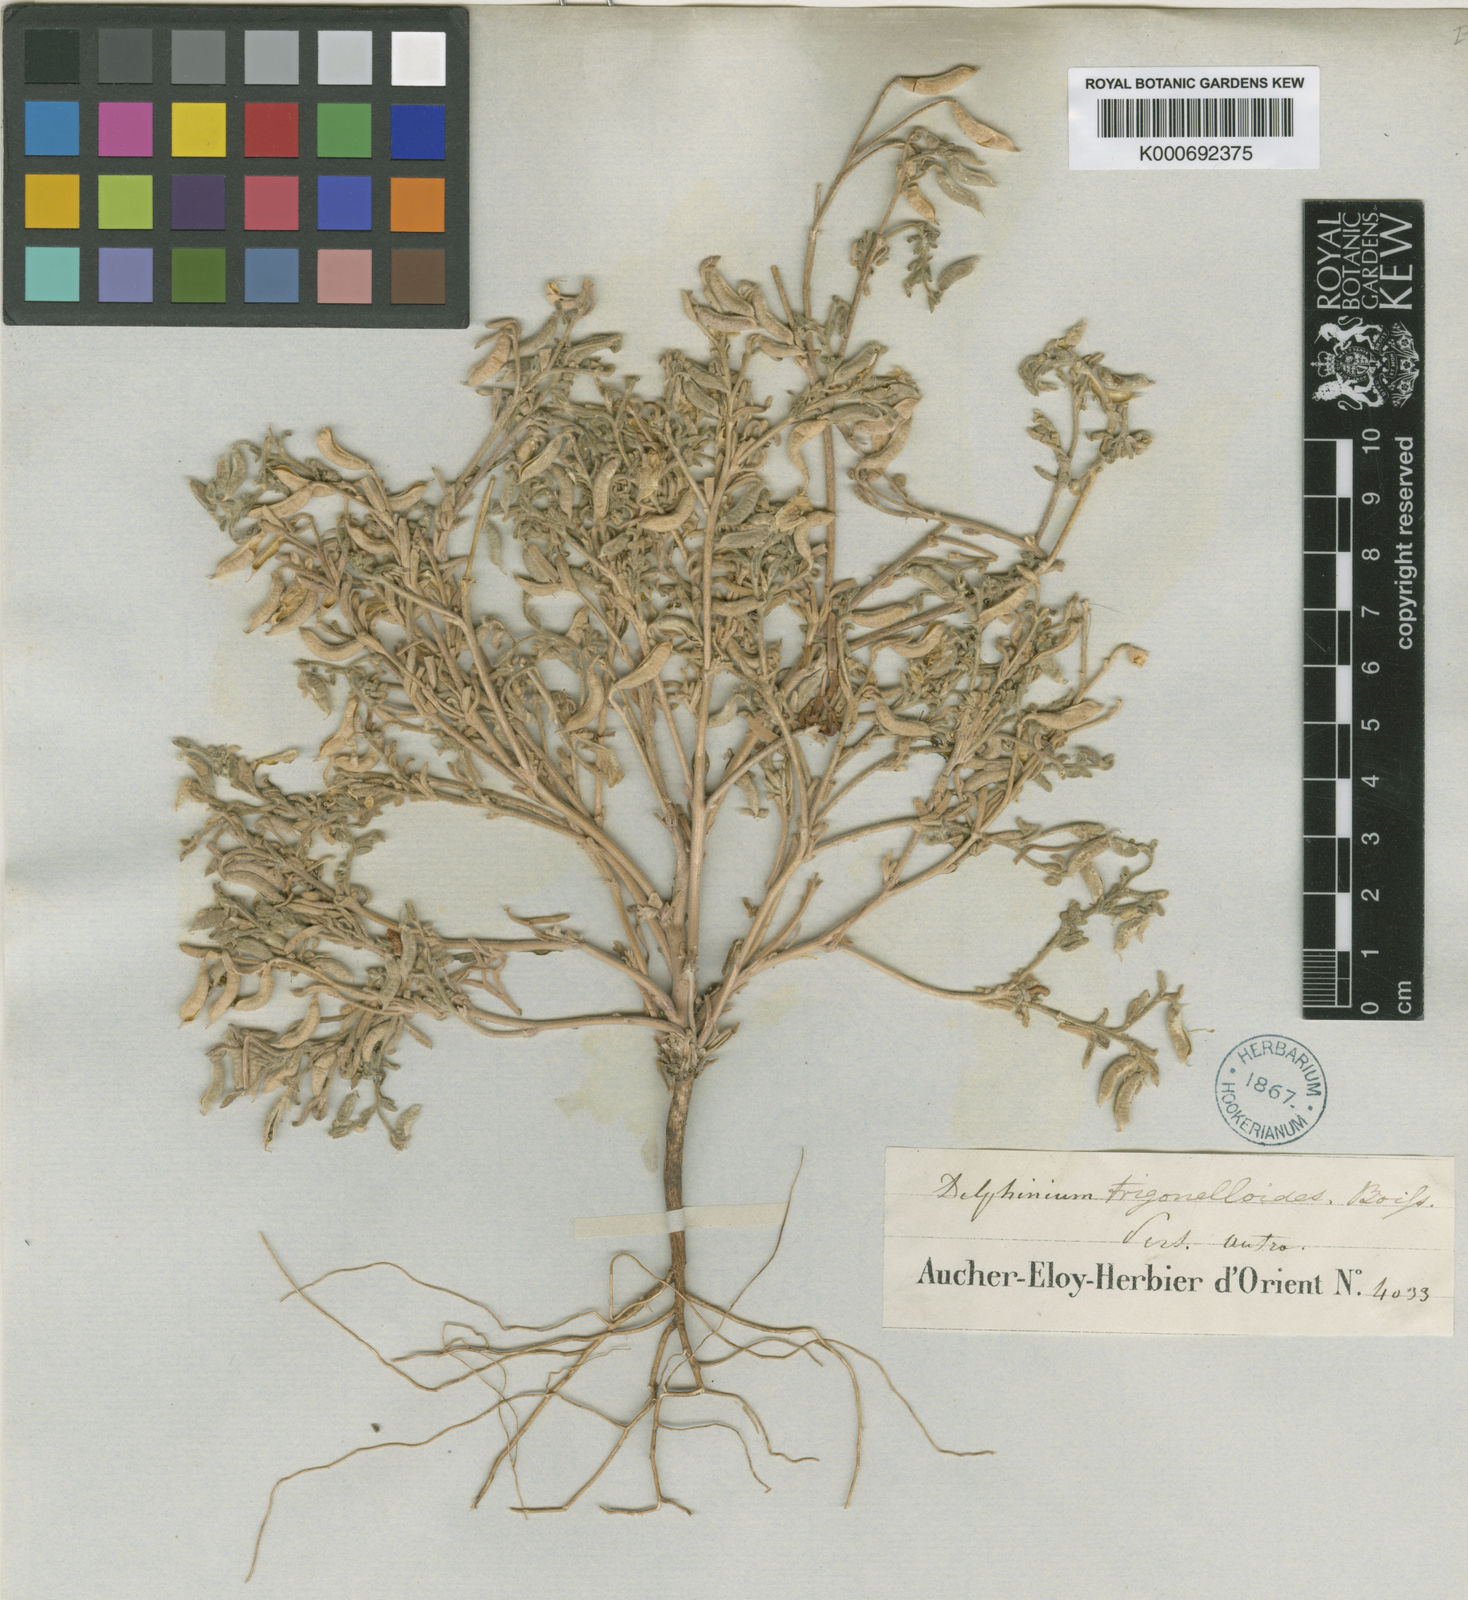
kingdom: Plantae
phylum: Tracheophyta
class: Magnoliopsida
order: Ranunculales
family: Ranunculaceae
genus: Delphinium
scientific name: Delphinium trigonelloides
